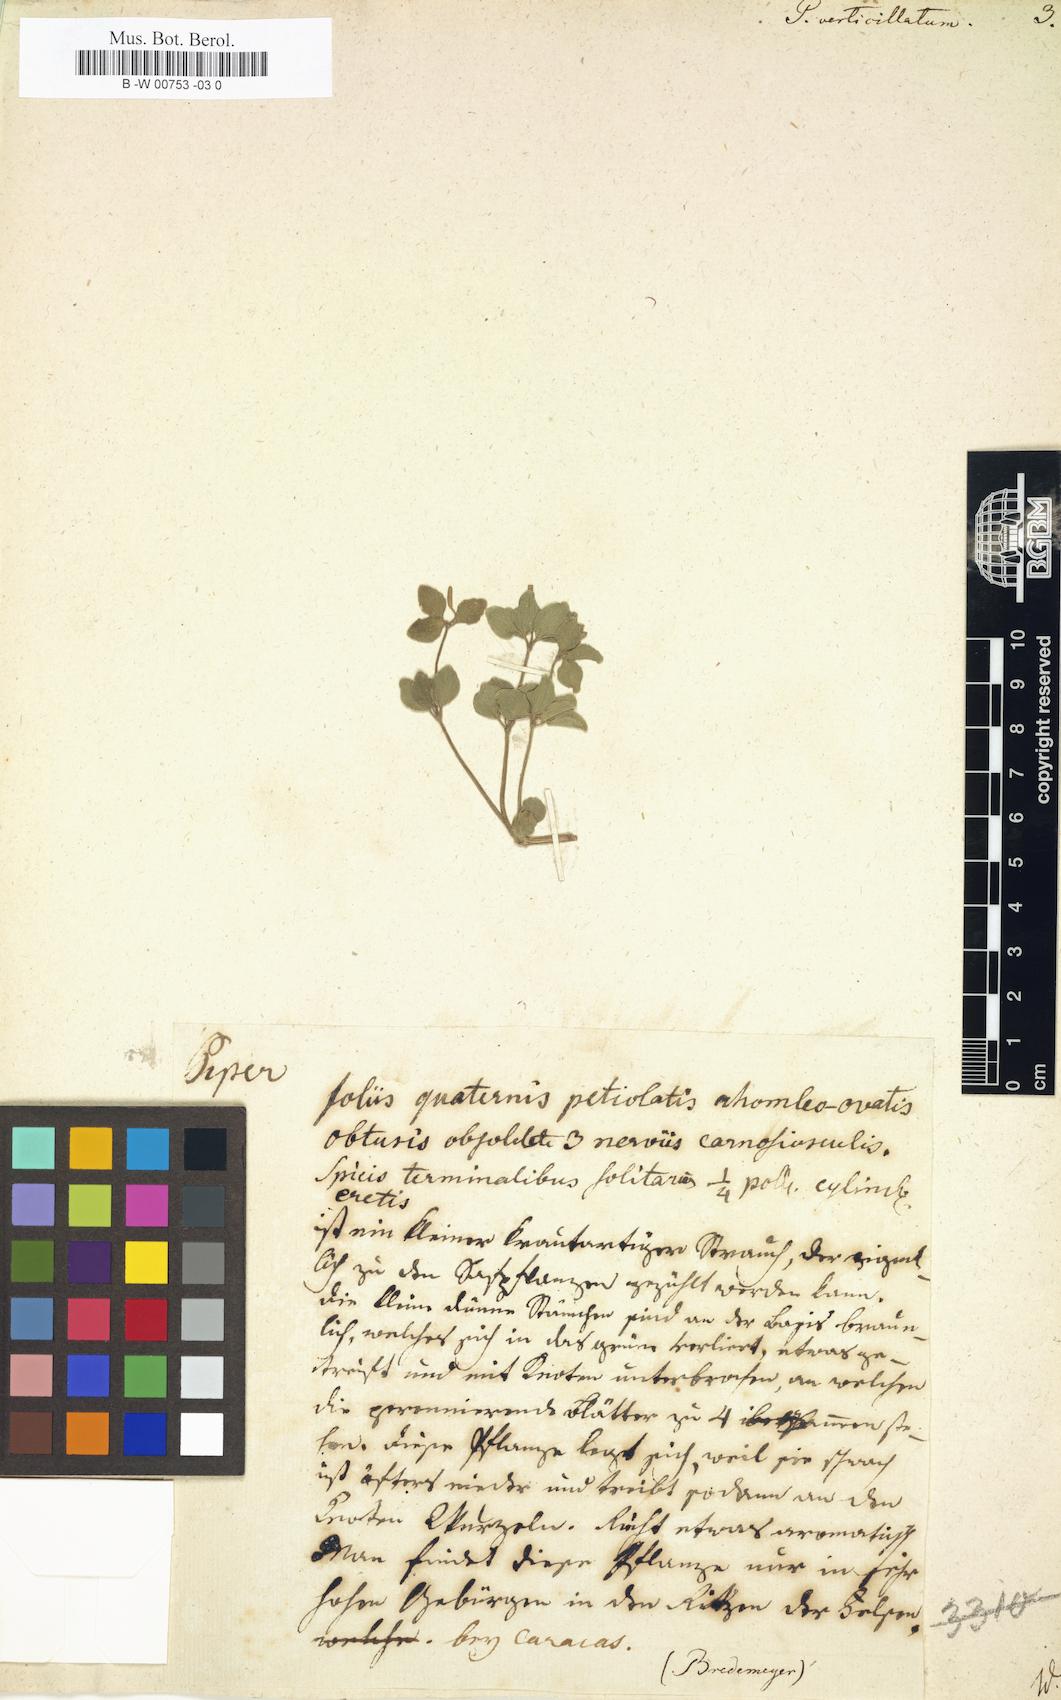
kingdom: Plantae
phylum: Tracheophyta
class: Magnoliopsida
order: Piperales
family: Piperaceae
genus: Peperomia
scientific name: Peperomia verticillata
